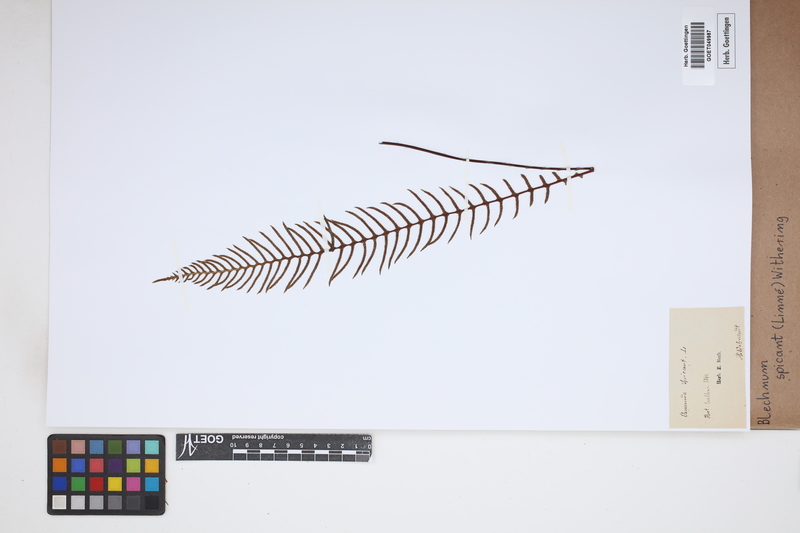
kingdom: Plantae
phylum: Tracheophyta
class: Polypodiopsida
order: Polypodiales
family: Blechnaceae
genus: Struthiopteris
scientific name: Struthiopteris spicant
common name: Deer fern
